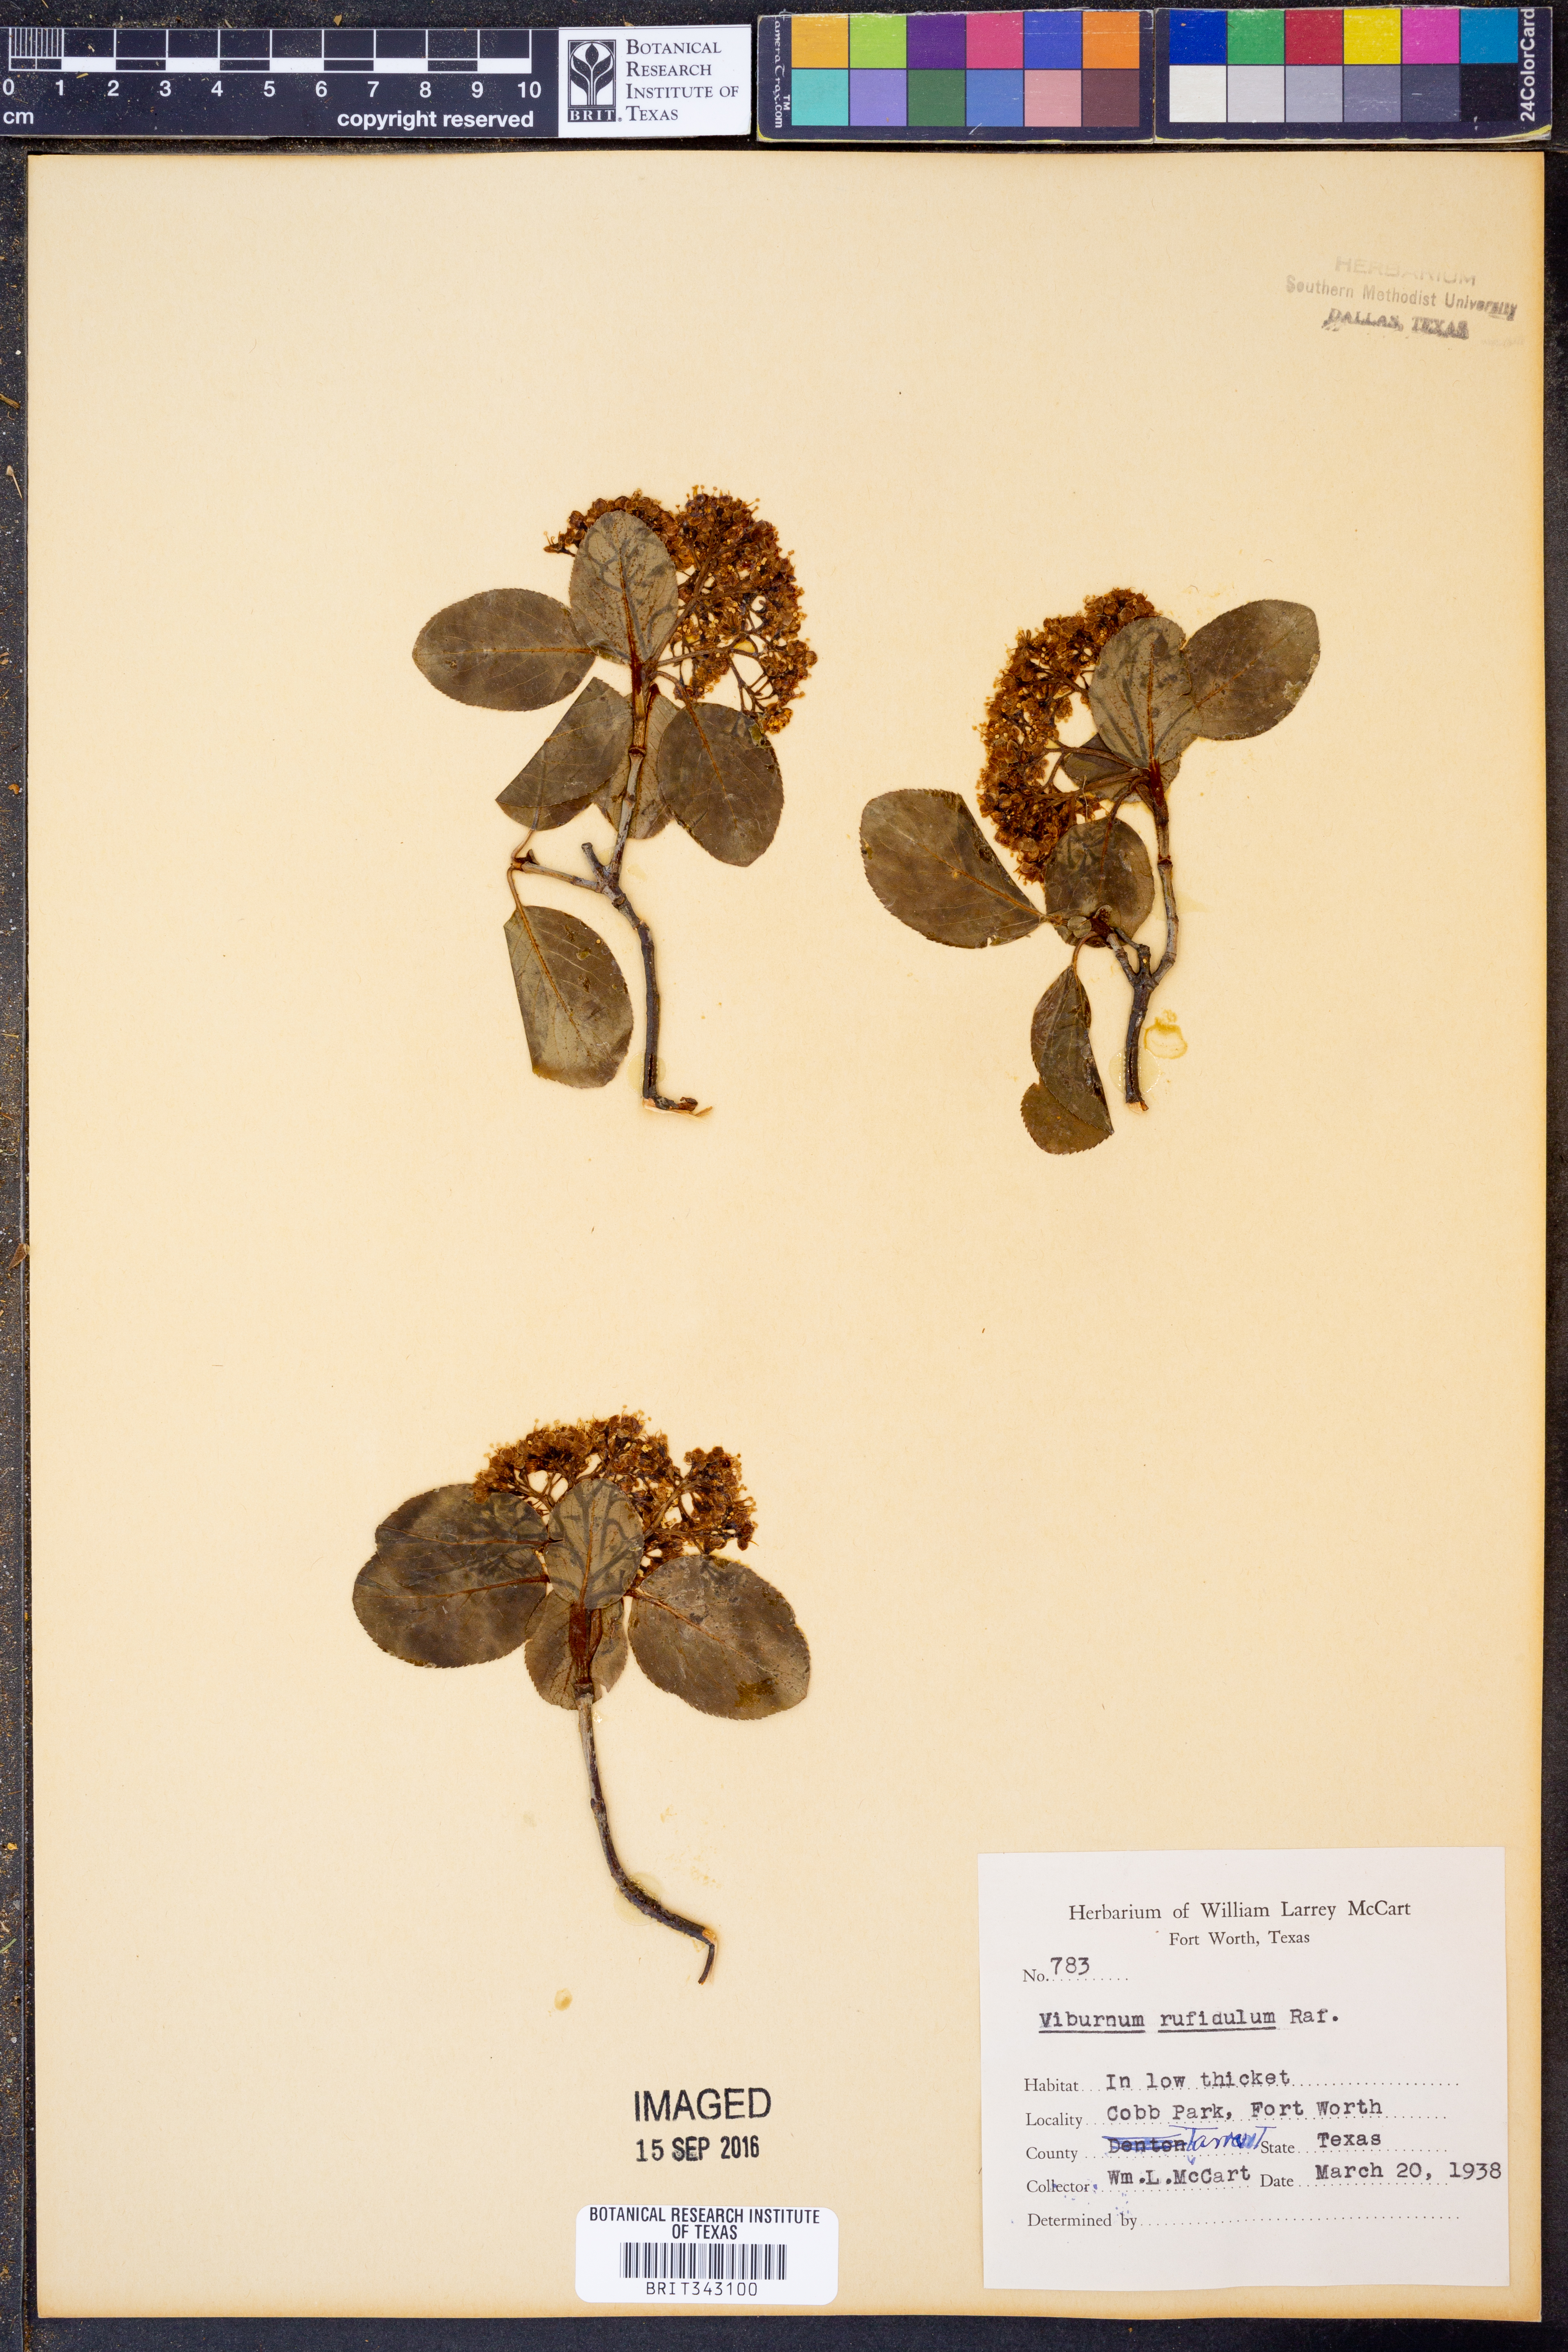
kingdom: Plantae
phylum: Tracheophyta
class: Magnoliopsida
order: Dipsacales
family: Viburnaceae
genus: Viburnum
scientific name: Viburnum rufidulum
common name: Blue haw
